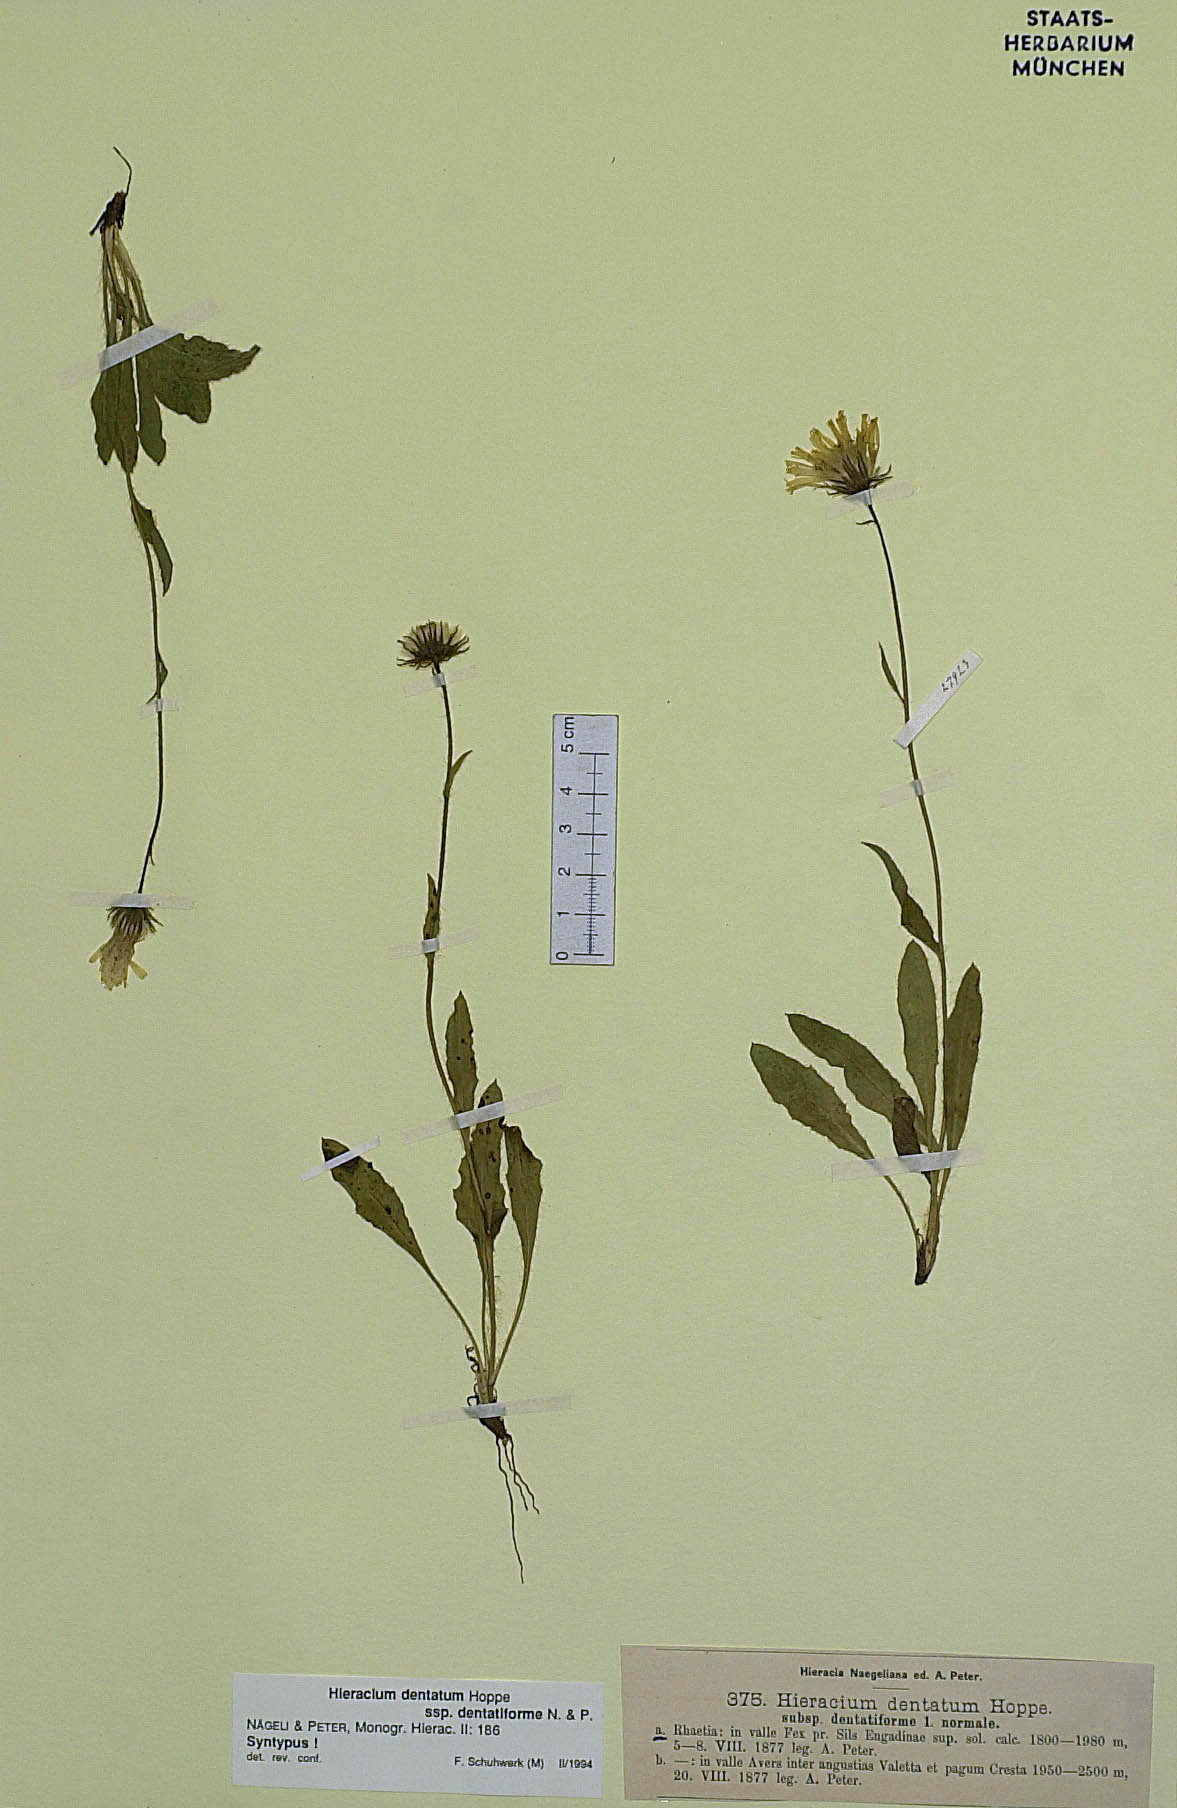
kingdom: Plantae
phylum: Tracheophyta
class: Magnoliopsida
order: Asterales
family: Asteraceae
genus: Hieracium
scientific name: Hieracium dentatum
